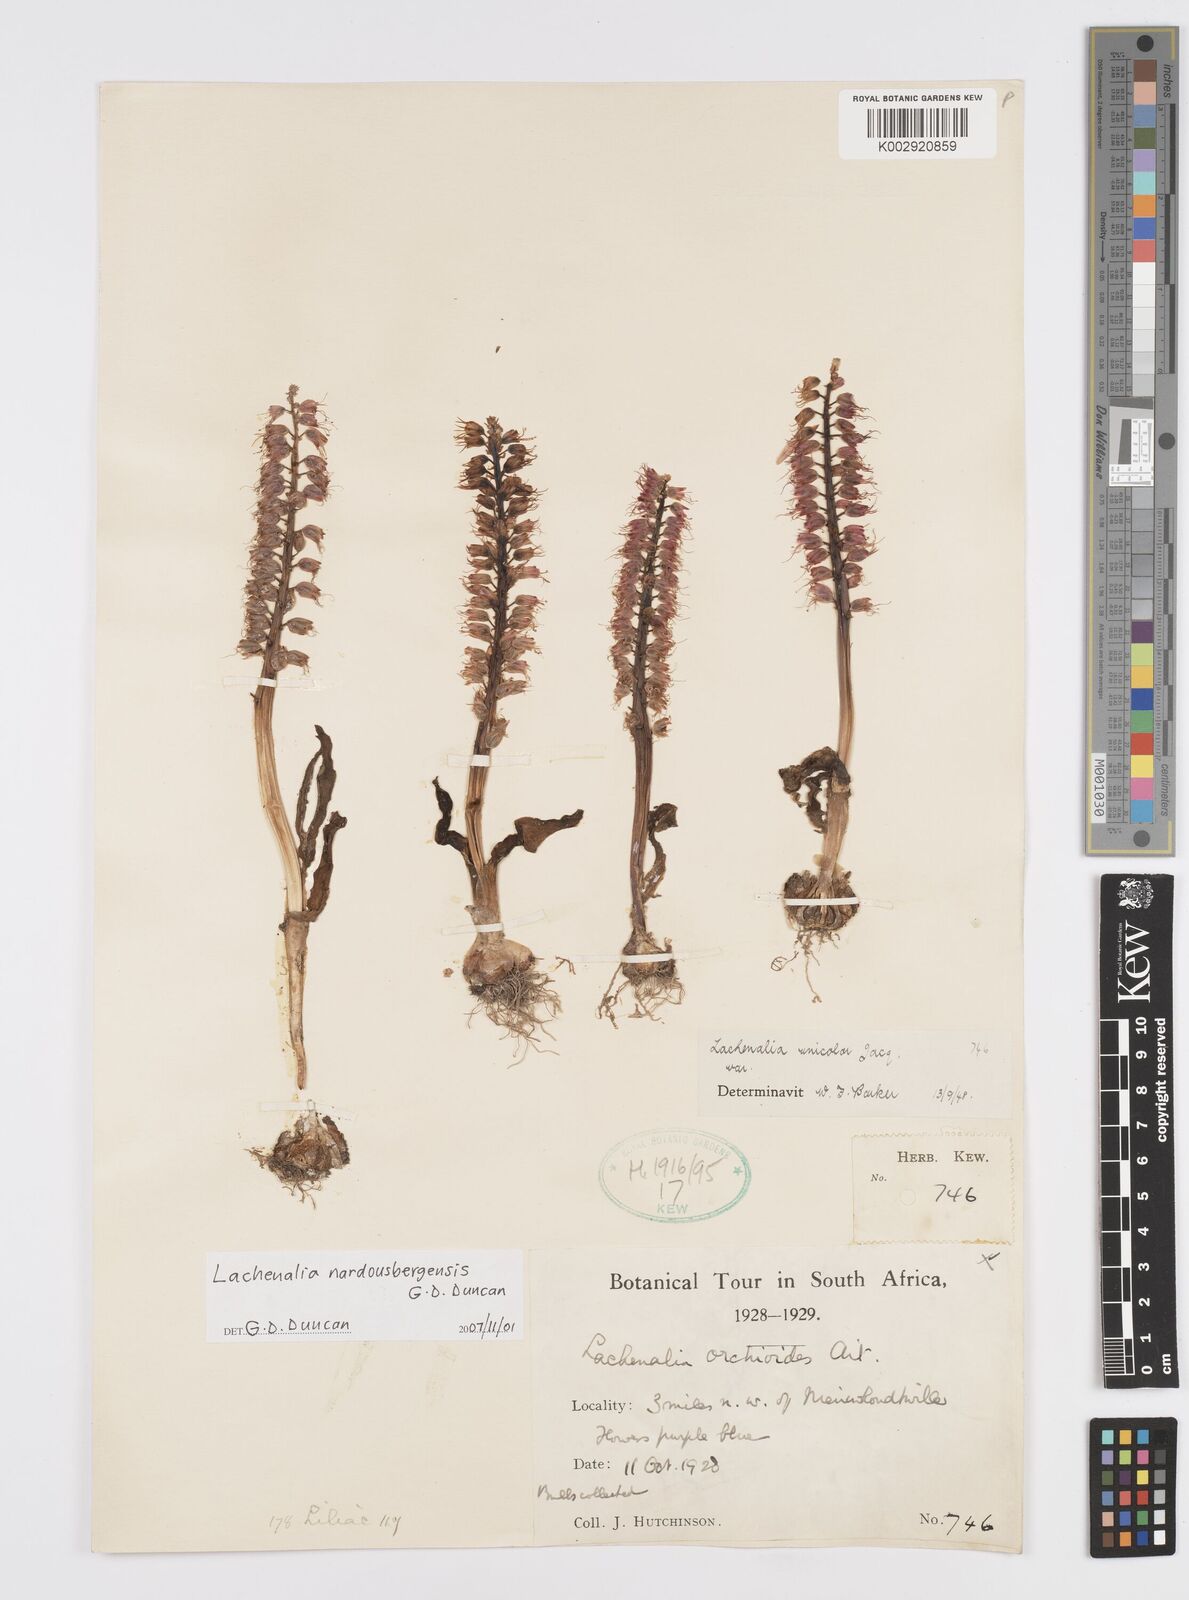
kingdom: Plantae
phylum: Tracheophyta
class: Liliopsida
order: Asparagales
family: Asparagaceae
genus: Lachenalia
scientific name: Lachenalia nardousbergensis
